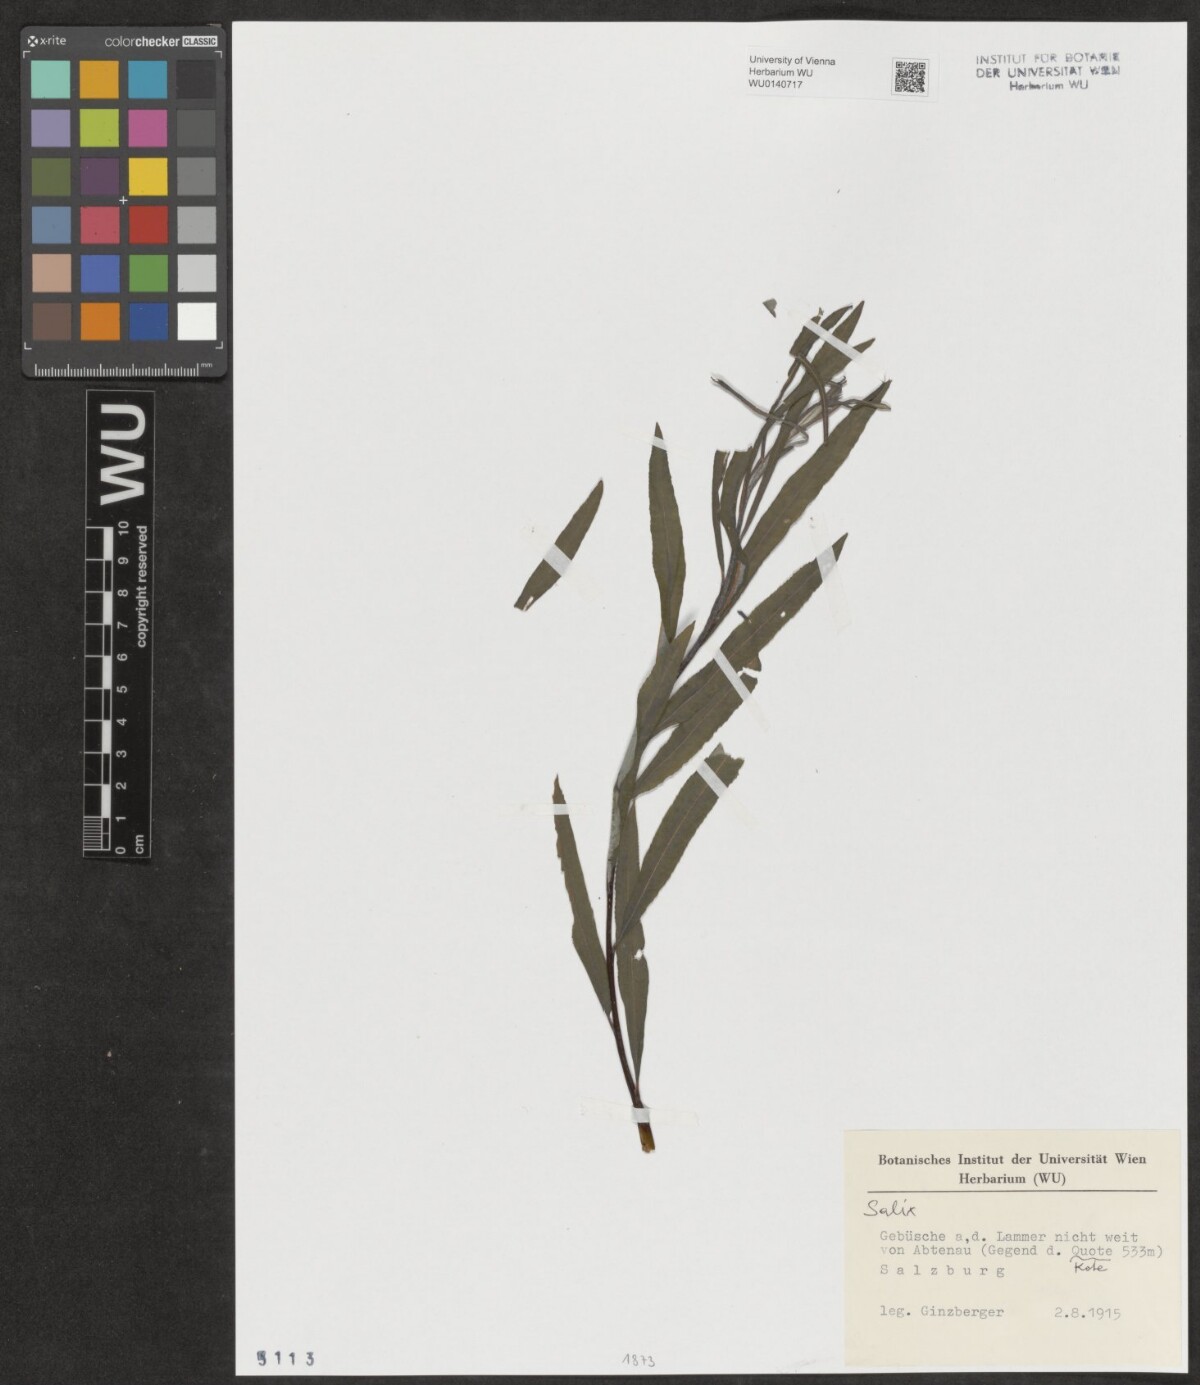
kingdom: Plantae
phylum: Tracheophyta
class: Magnoliopsida
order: Malpighiales
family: Salicaceae
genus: Salix
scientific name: Salix
